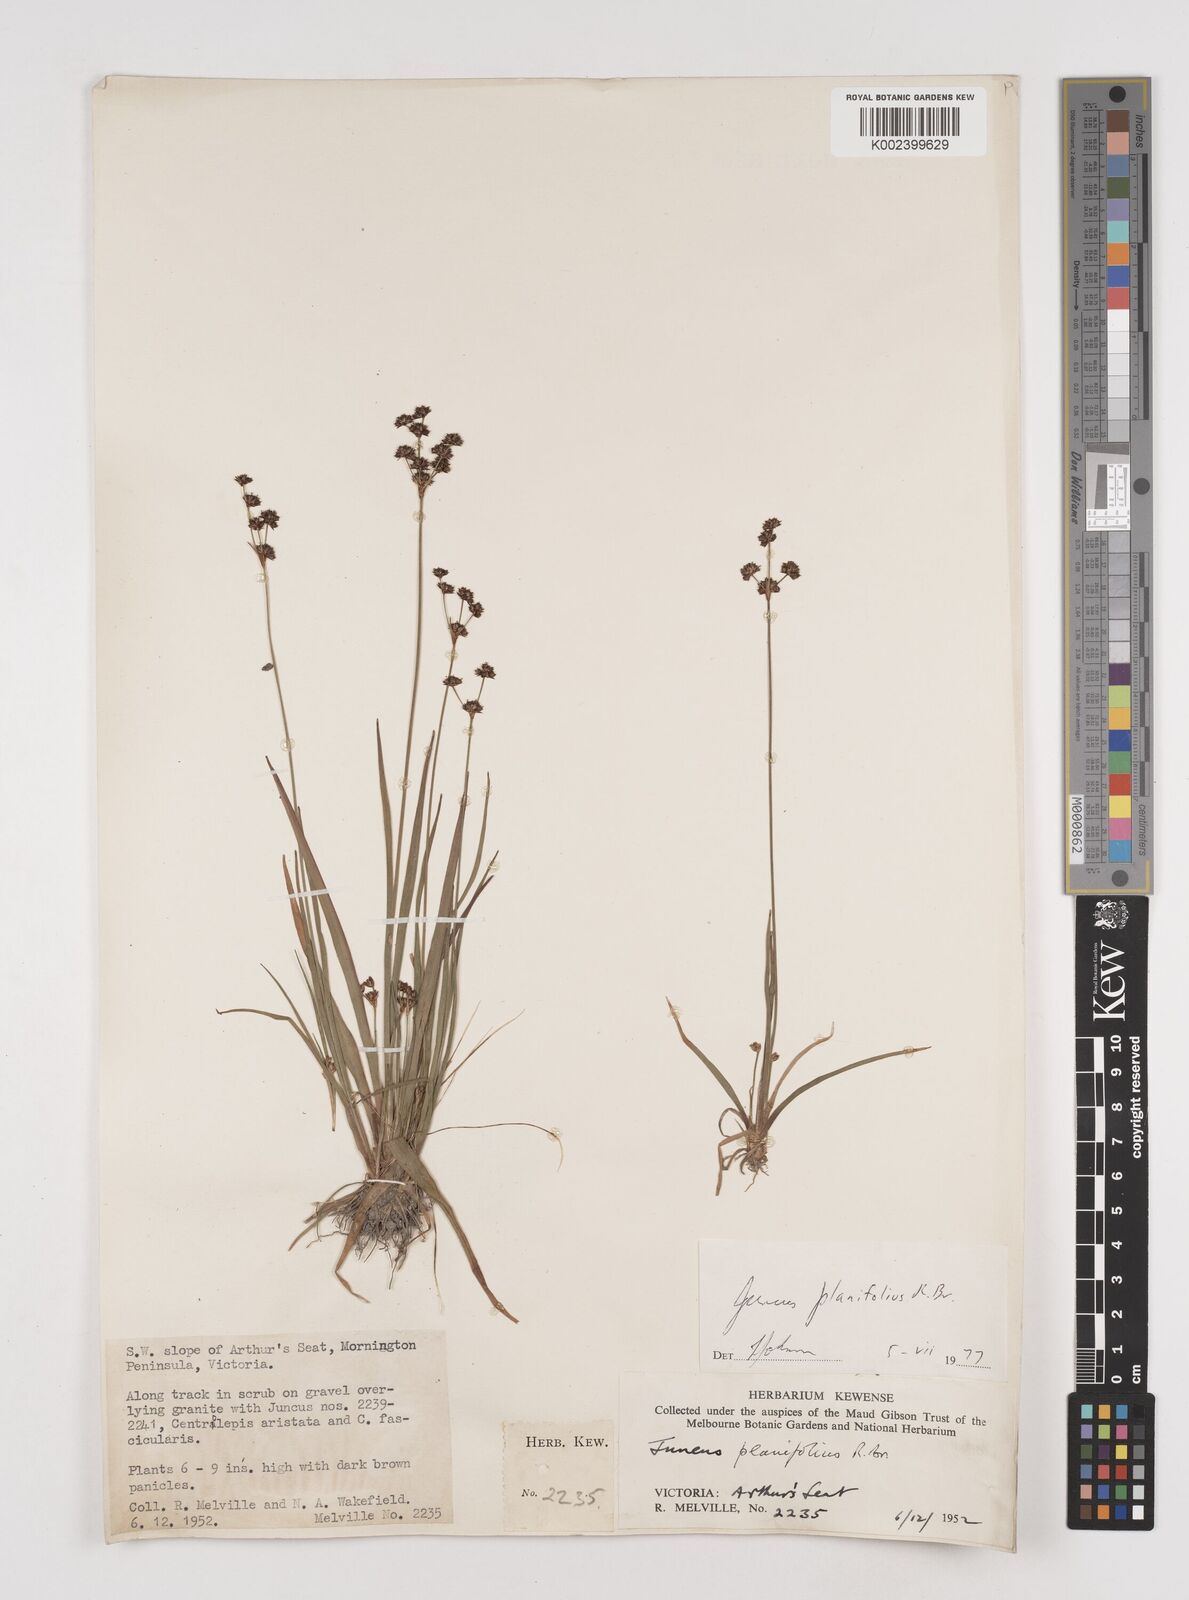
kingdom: Plantae
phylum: Tracheophyta
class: Liliopsida
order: Poales
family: Juncaceae
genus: Juncus
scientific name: Juncus planifolius
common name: Broadleaf rush
